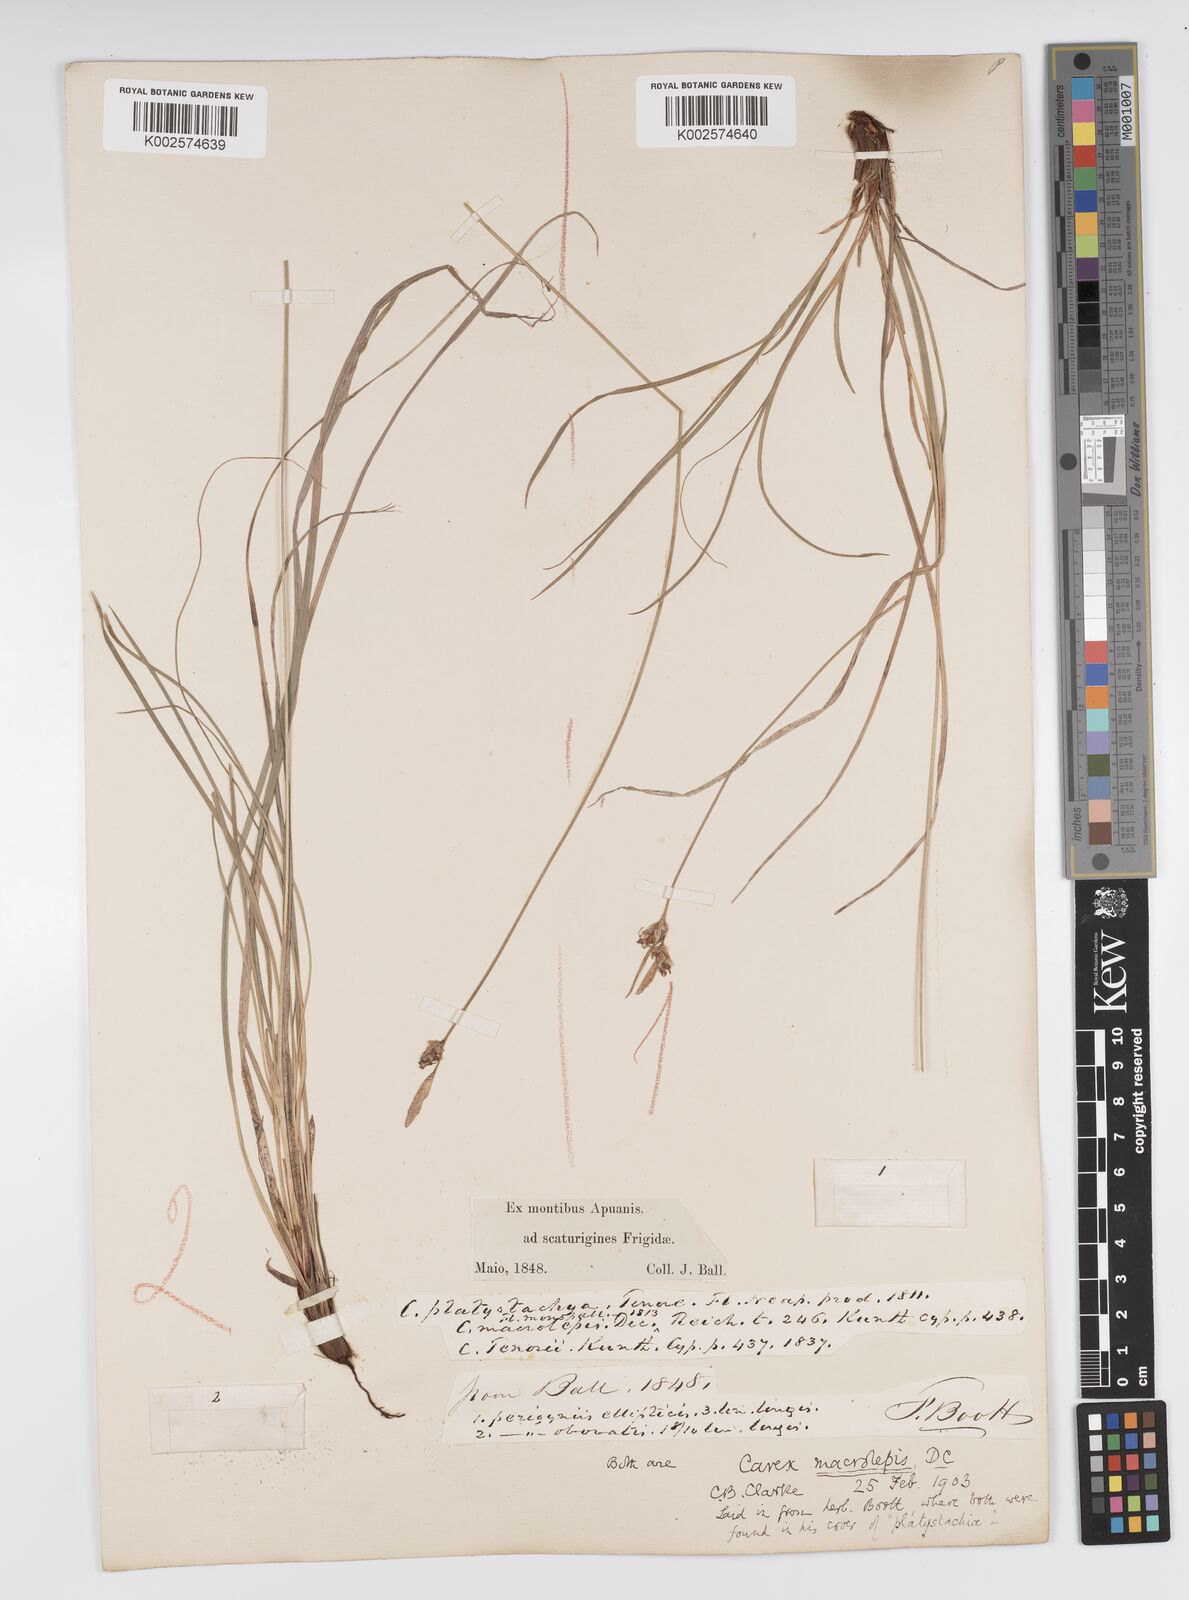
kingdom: Plantae
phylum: Tracheophyta
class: Liliopsida
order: Poales
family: Cyperaceae
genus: Carex
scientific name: Carex macrolepis
